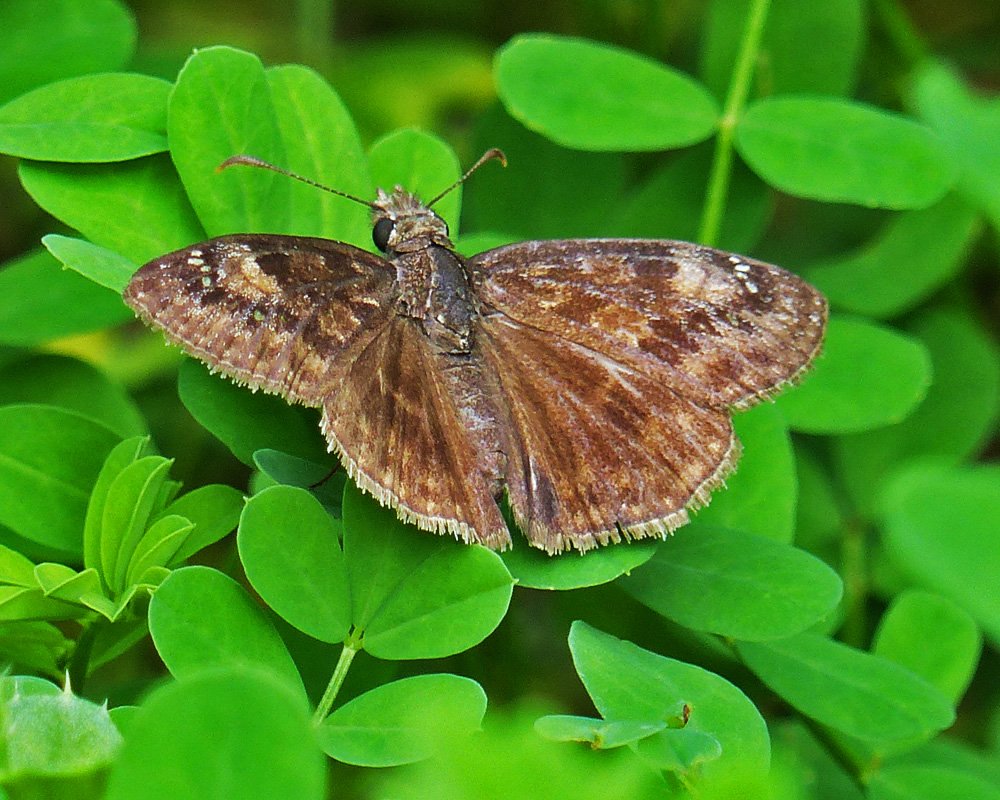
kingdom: Animalia
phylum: Arthropoda
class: Insecta
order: Lepidoptera
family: Hesperiidae
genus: Gesta
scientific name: Gesta
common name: Wild Indigo Duskywing
